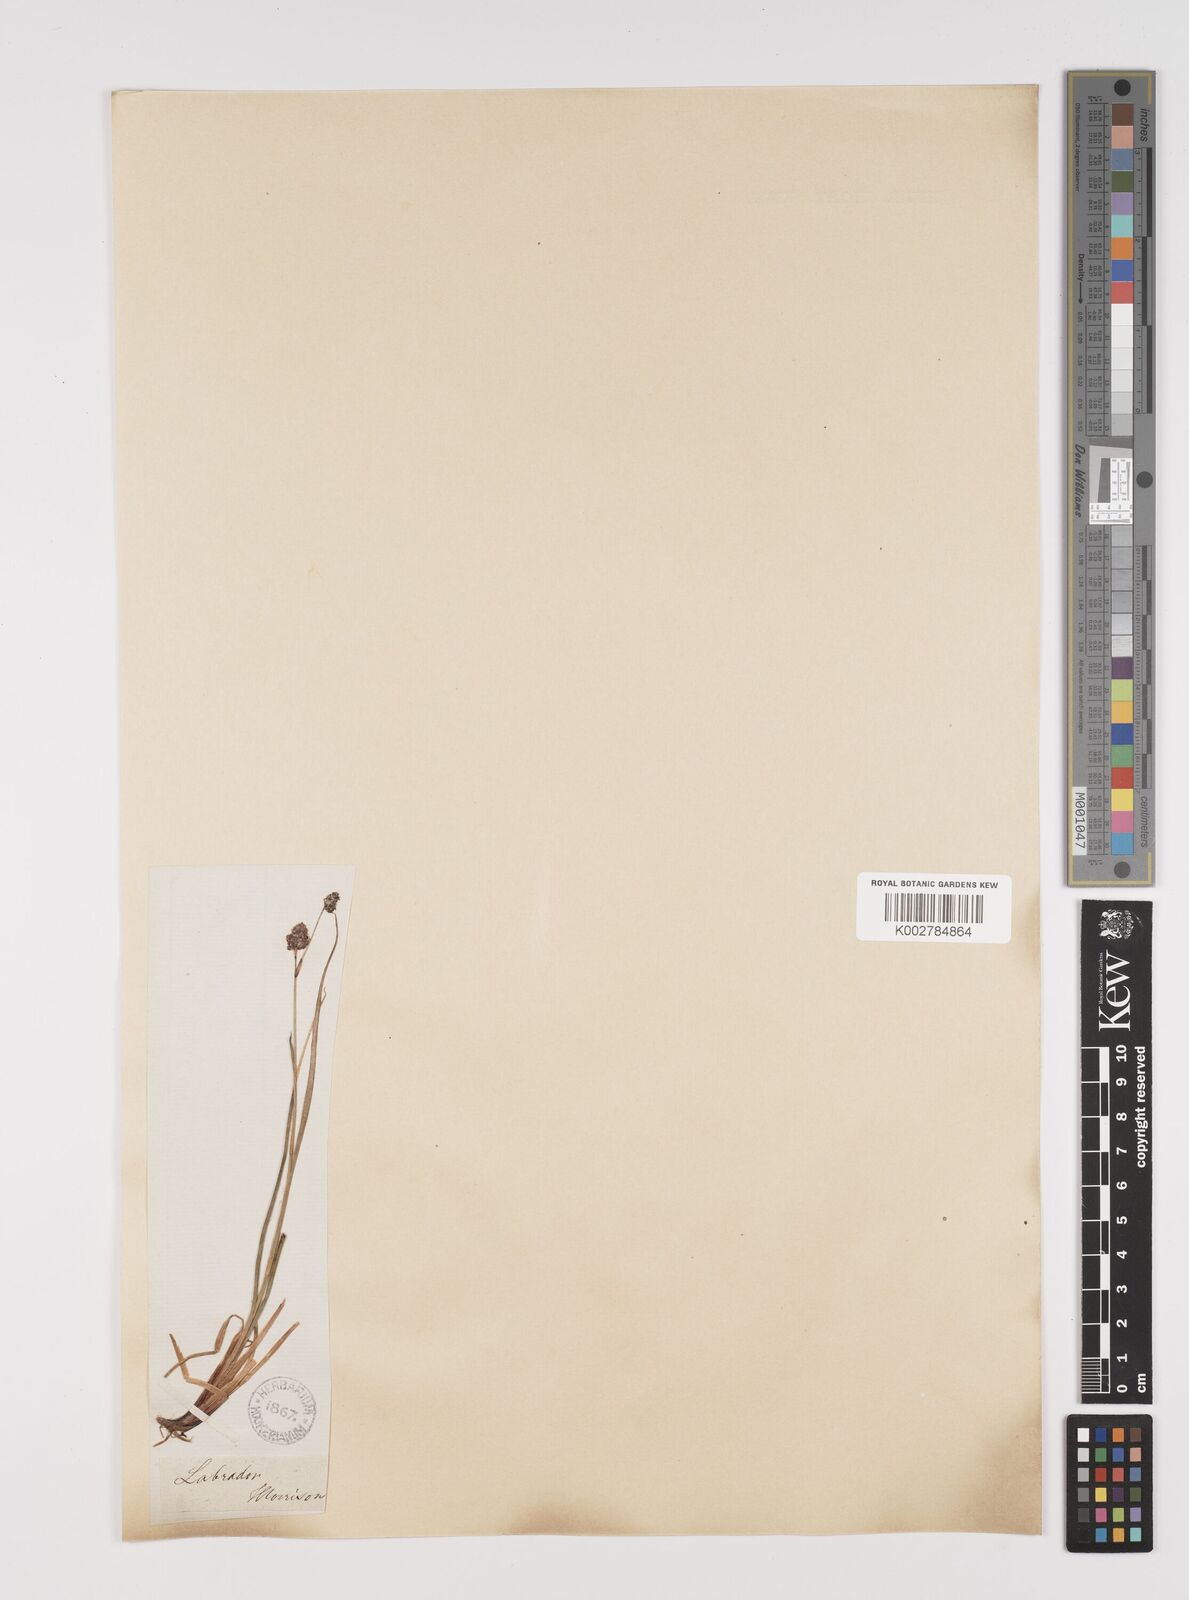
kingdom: Plantae
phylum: Tracheophyta
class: Liliopsida
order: Poales
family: Juncaceae
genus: Luzula
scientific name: Luzula confusa
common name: Northern wood rush
